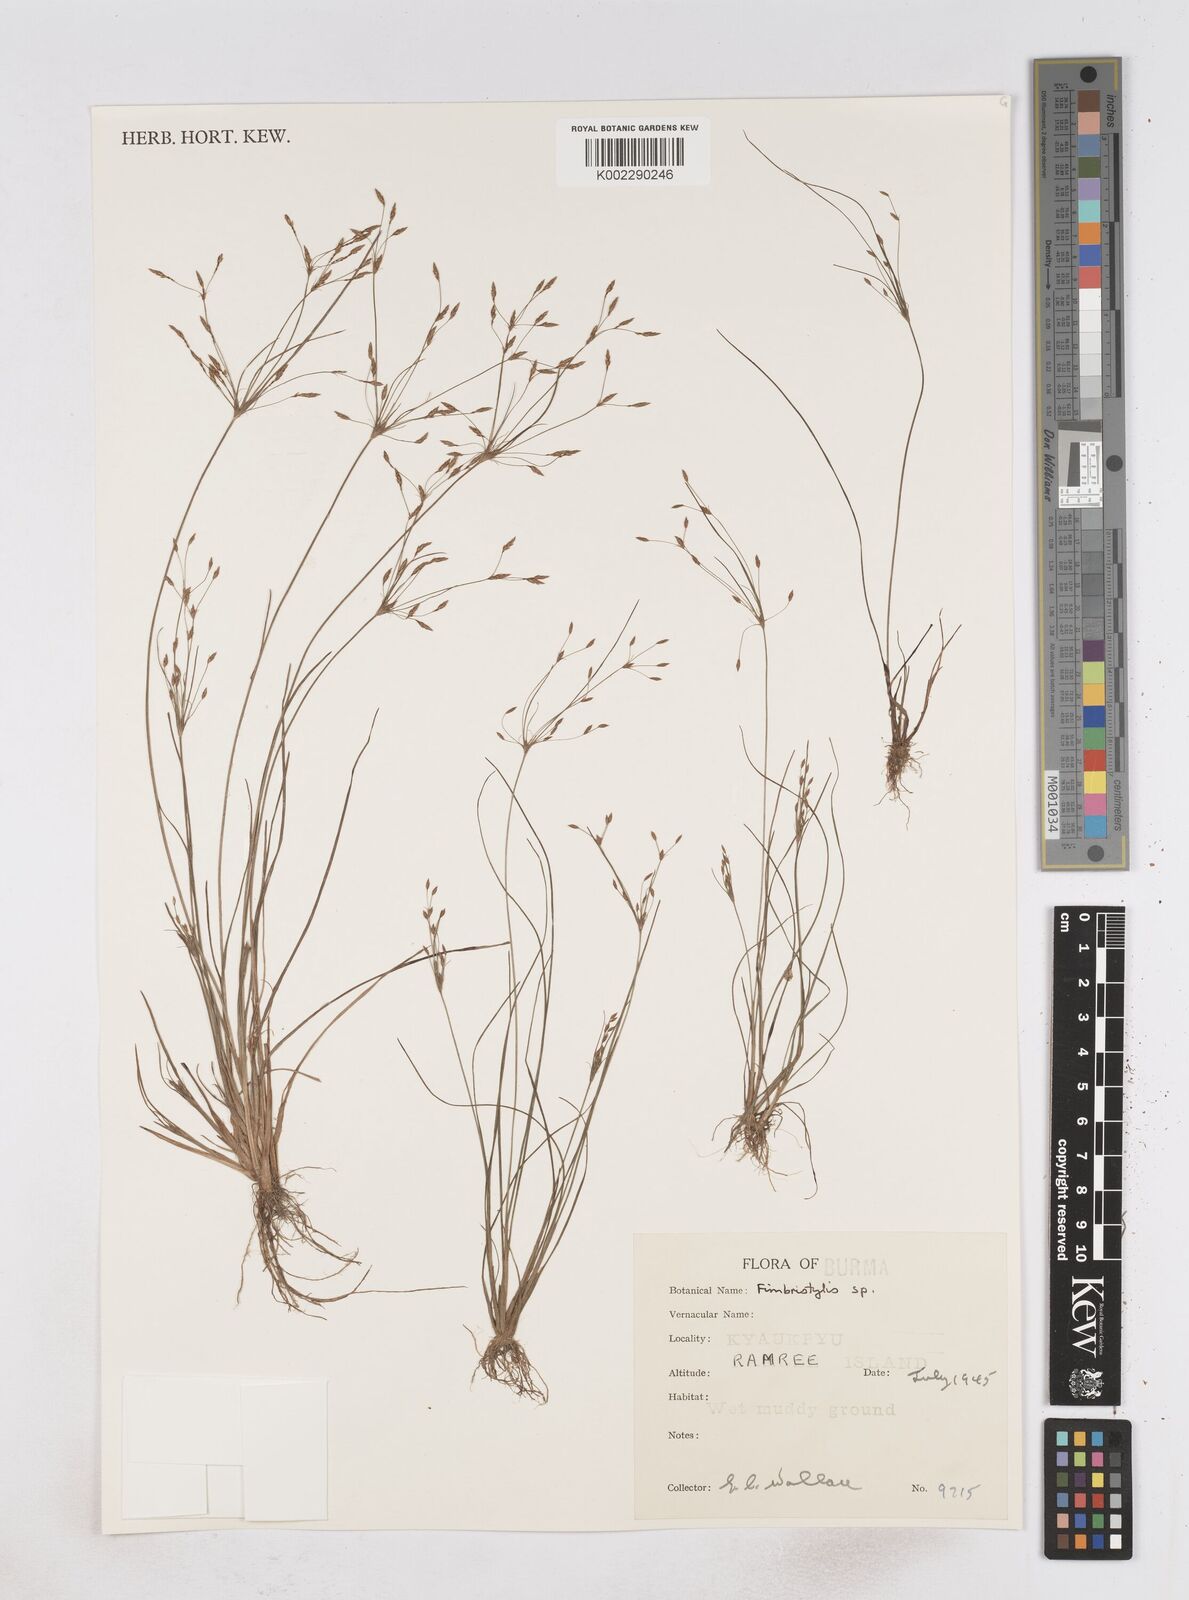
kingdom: Plantae
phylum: Tracheophyta
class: Liliopsida
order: Poales
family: Cyperaceae
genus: Fimbristylis
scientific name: Fimbristylis
